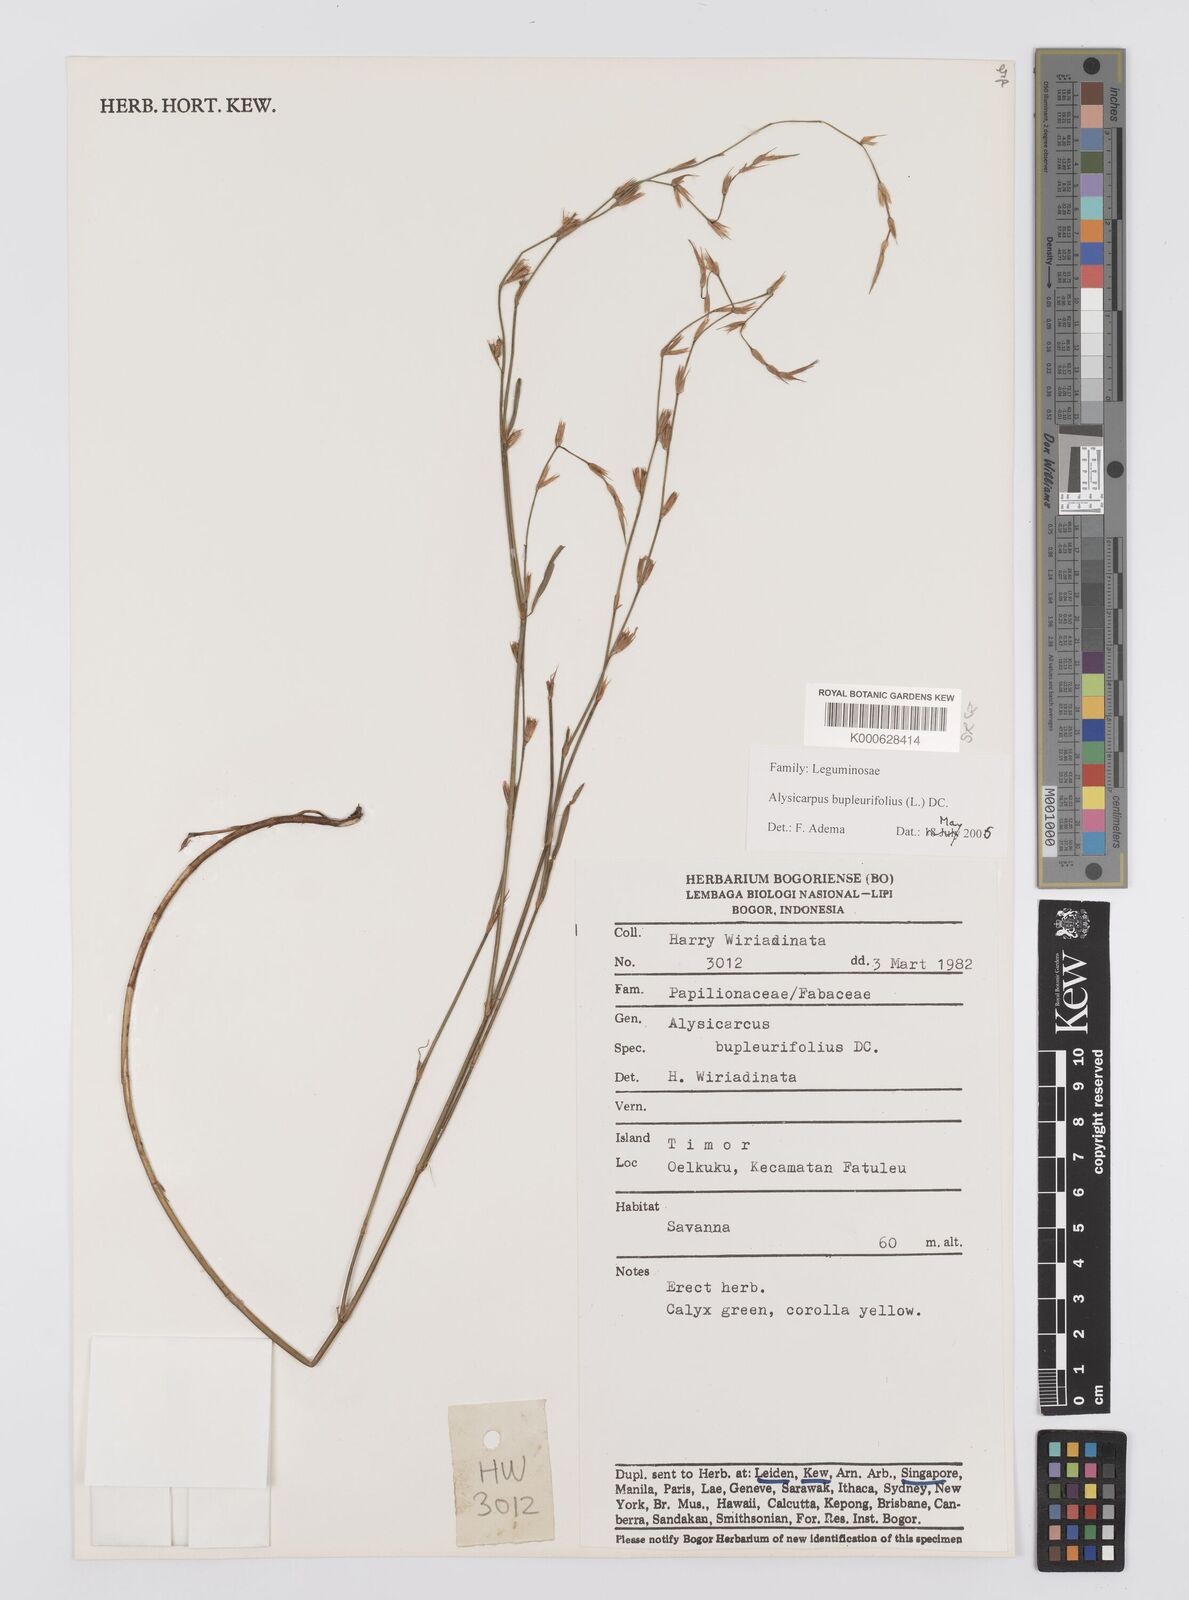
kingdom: Plantae
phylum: Tracheophyta
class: Magnoliopsida
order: Fabales
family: Fabaceae
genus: Alysicarpus
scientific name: Alysicarpus bupleurifolius
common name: Sweet alys
